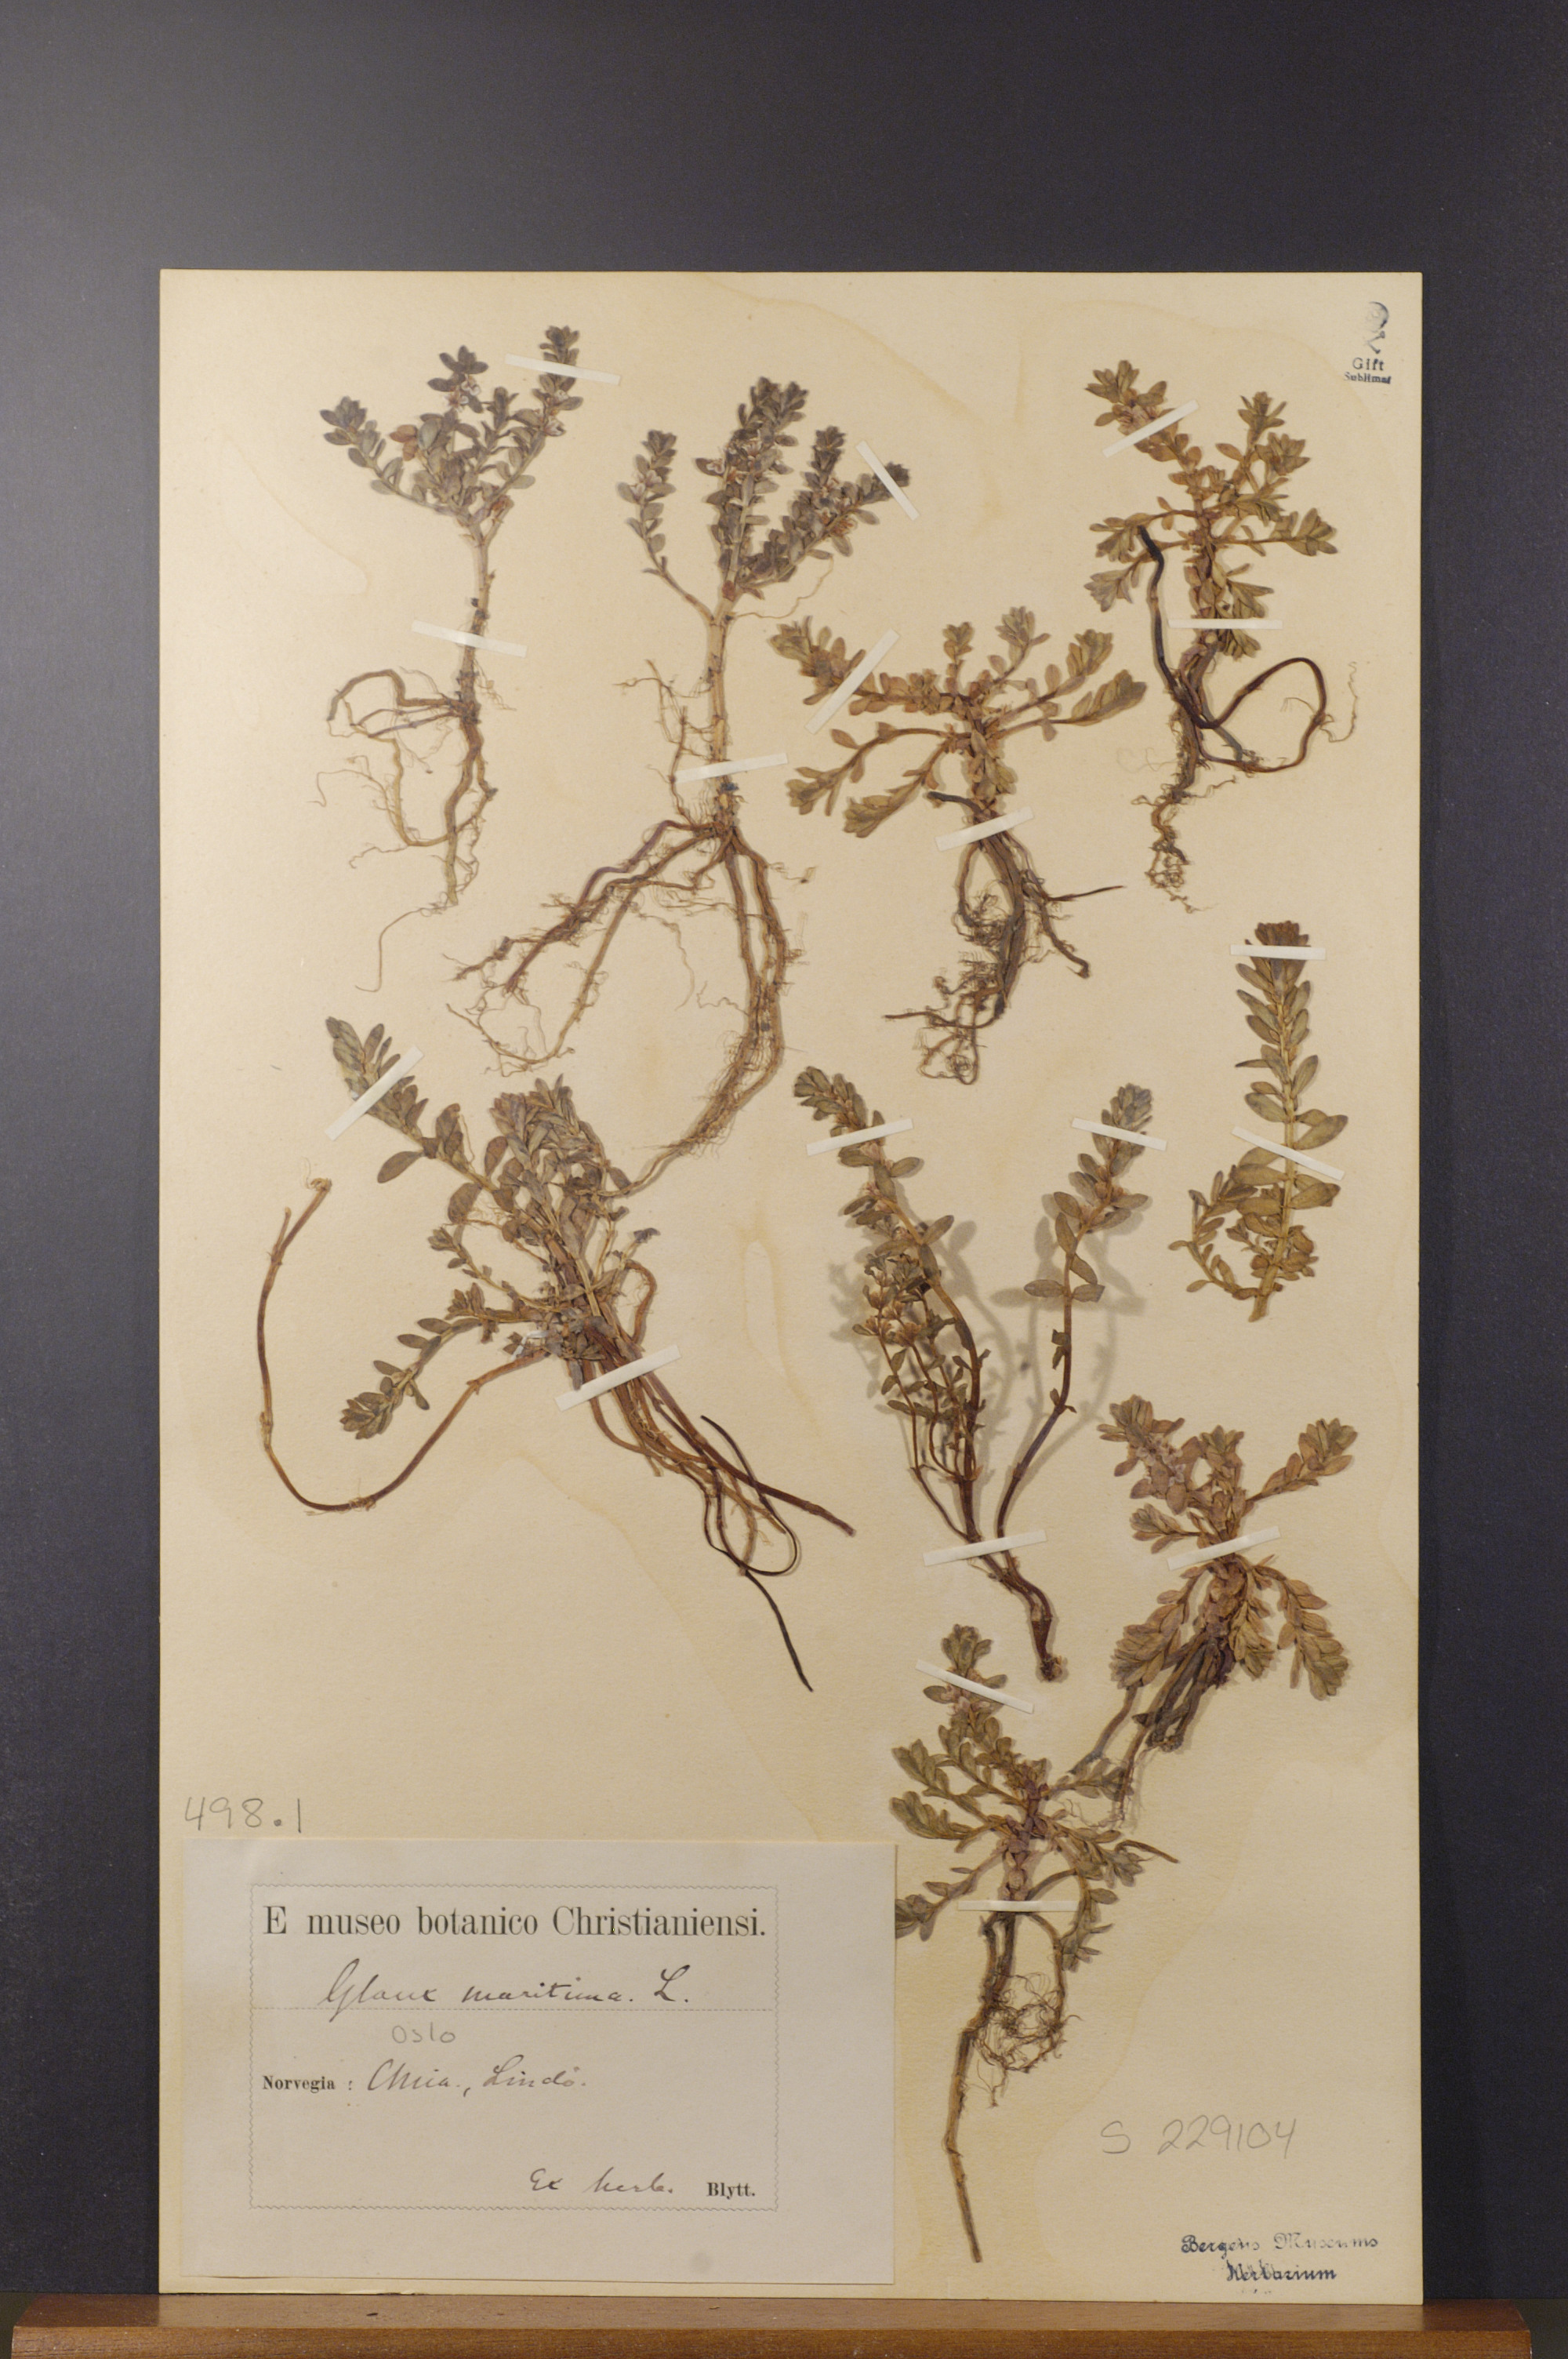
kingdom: Plantae
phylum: Tracheophyta
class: Magnoliopsida
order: Ericales
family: Primulaceae
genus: Lysimachia
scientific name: Lysimachia maritima
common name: Sea milkwort
